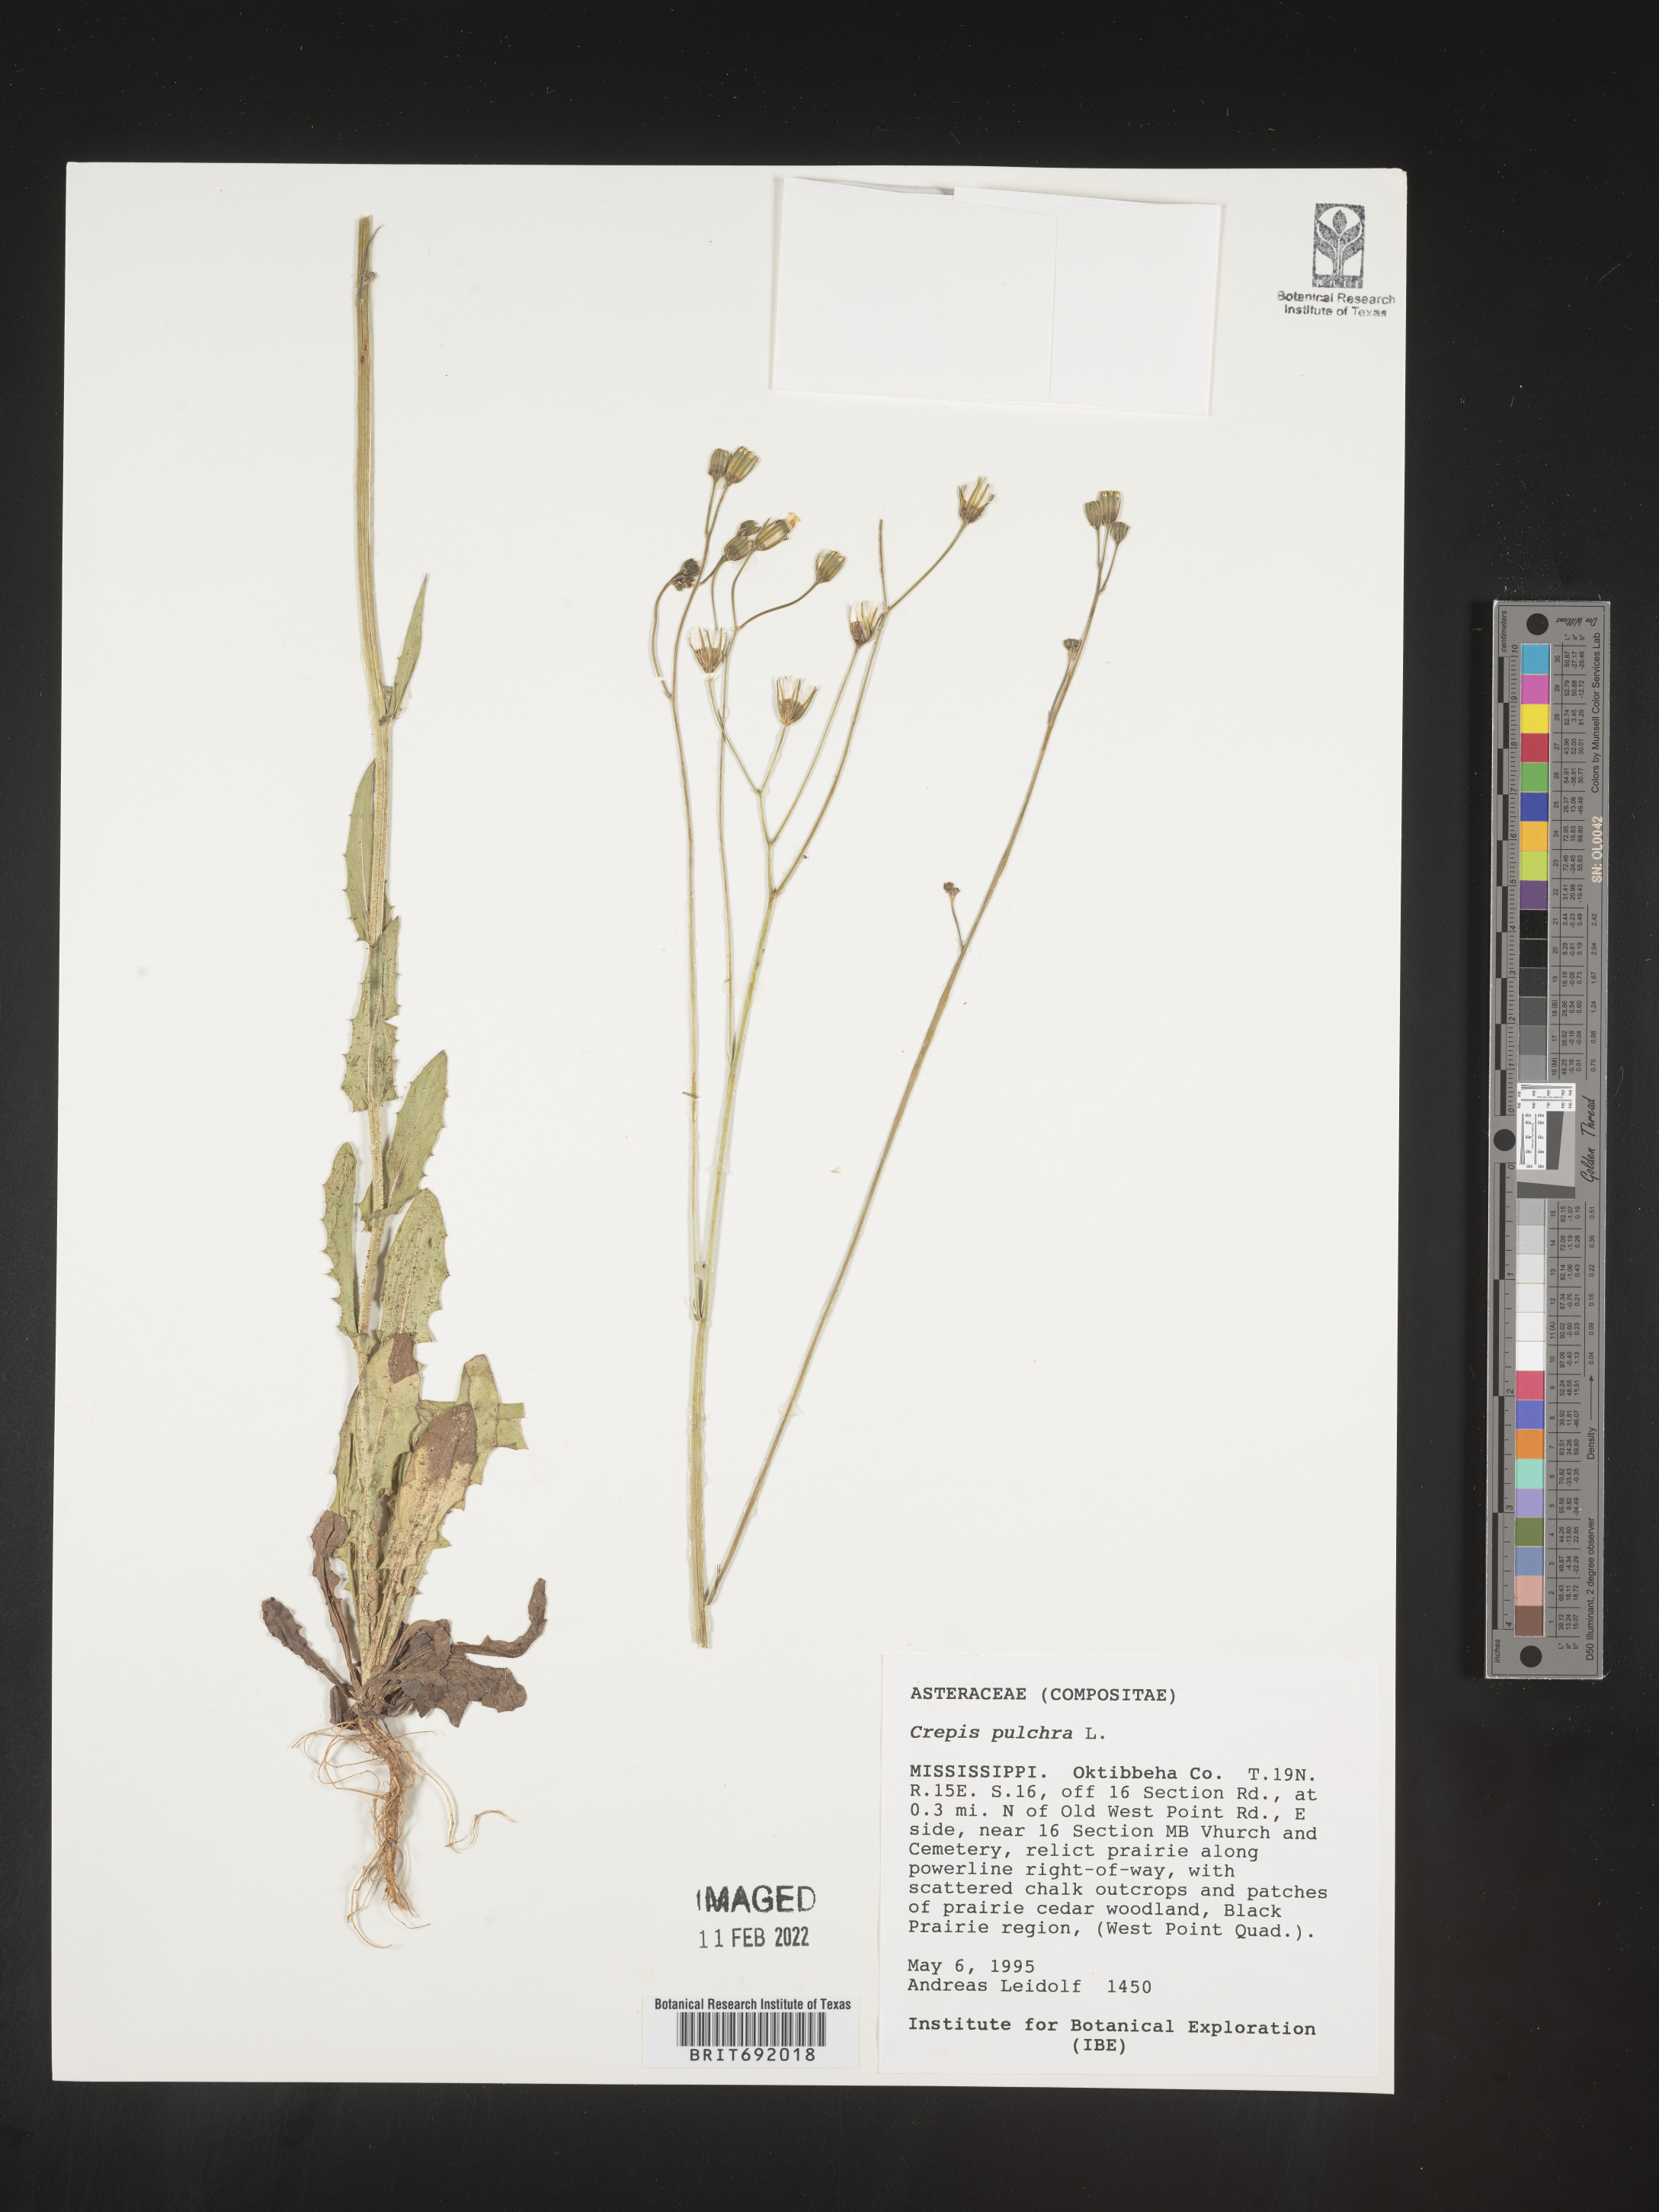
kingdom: Plantae
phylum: Tracheophyta
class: Magnoliopsida
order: Asterales
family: Asteraceae
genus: Crepis
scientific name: Crepis pulchra
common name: Hawk's-beard
